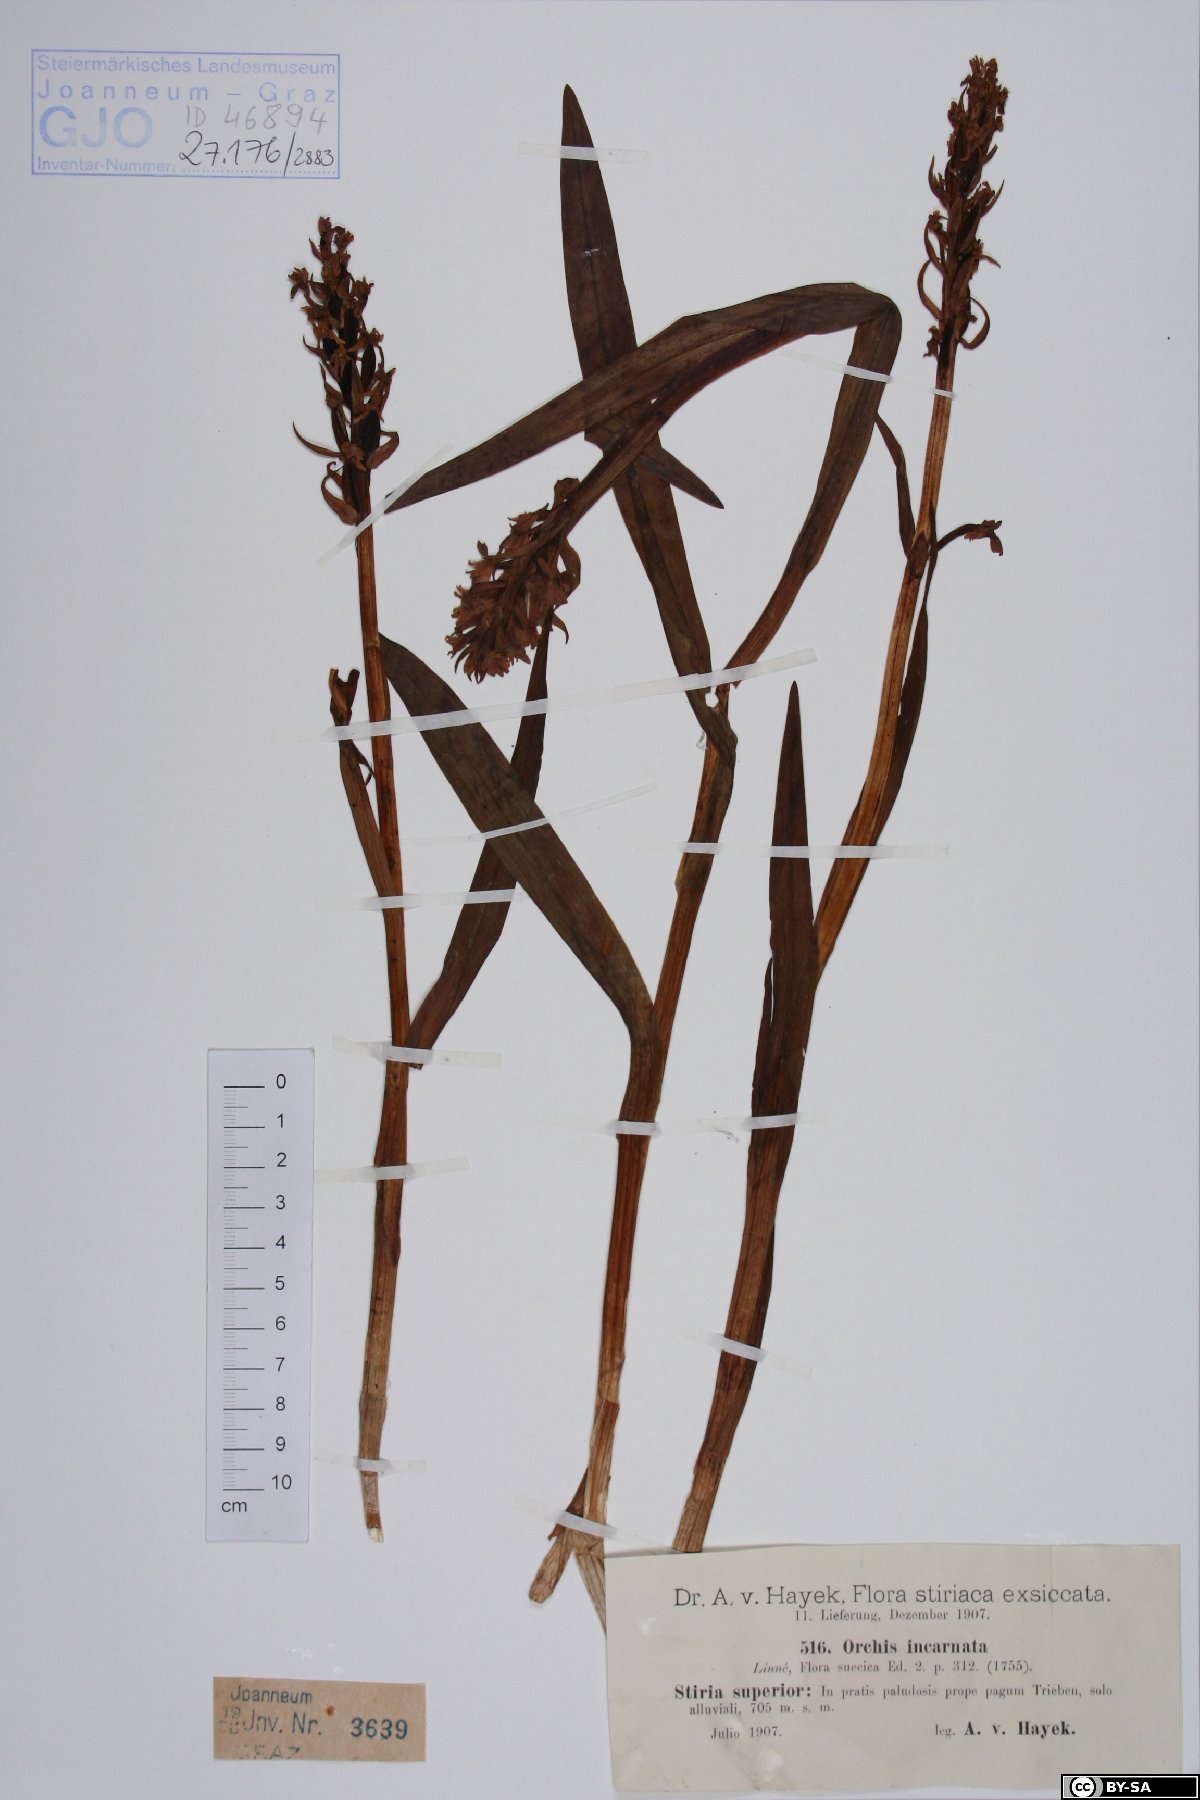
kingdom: Plantae
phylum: Tracheophyta
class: Liliopsida
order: Asparagales
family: Orchidaceae
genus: Dactylorhiza
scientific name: Dactylorhiza incarnata
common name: Early marsh-orchid
